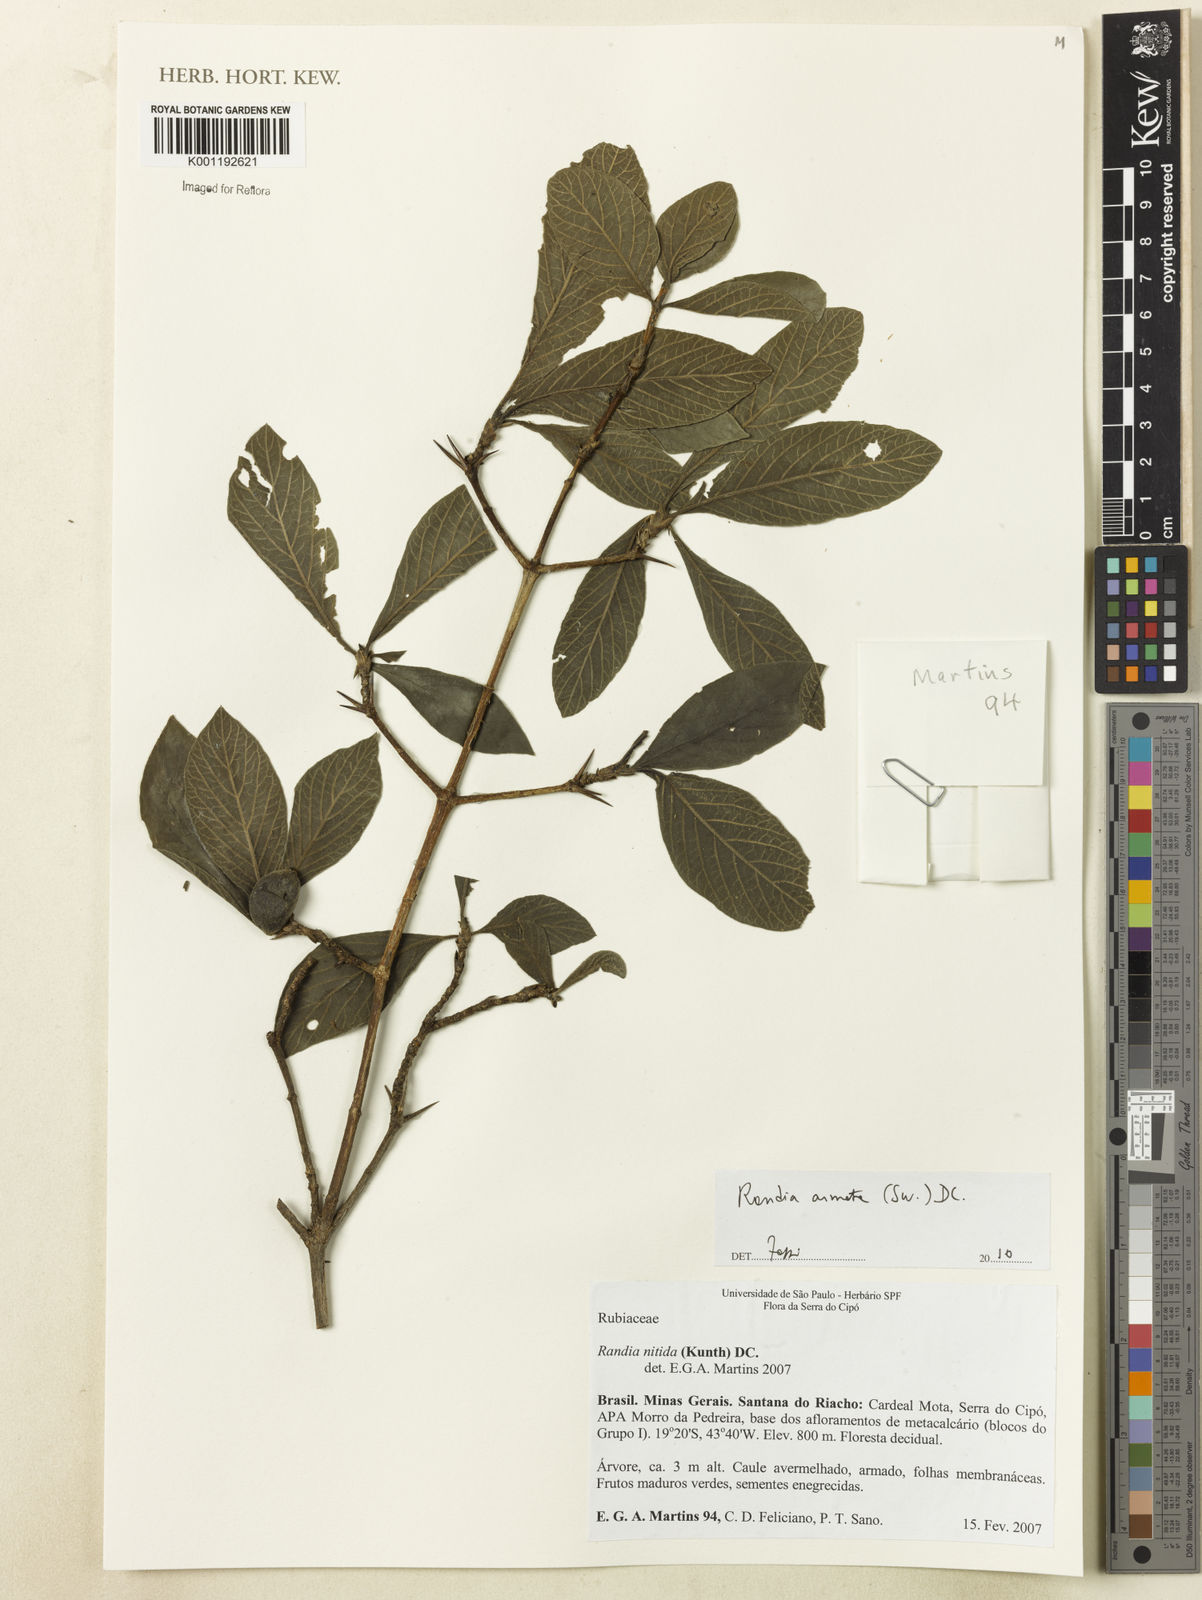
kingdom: Plantae
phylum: Tracheophyta
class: Magnoliopsida
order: Gentianales
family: Rubiaceae
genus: Randia
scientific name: Randia armata
